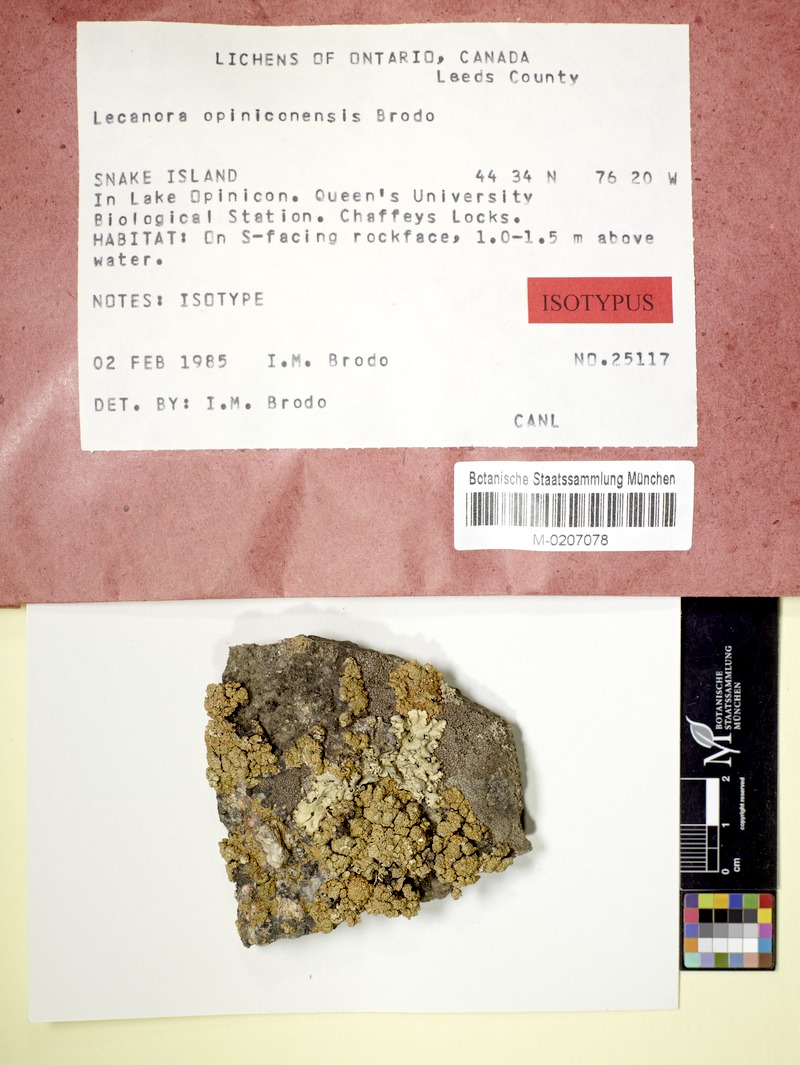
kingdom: Fungi
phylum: Ascomycota
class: Lecanoromycetes
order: Lecanorales
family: Lecanoraceae
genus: Omphalodina
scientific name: Omphalodina opiniconensis
